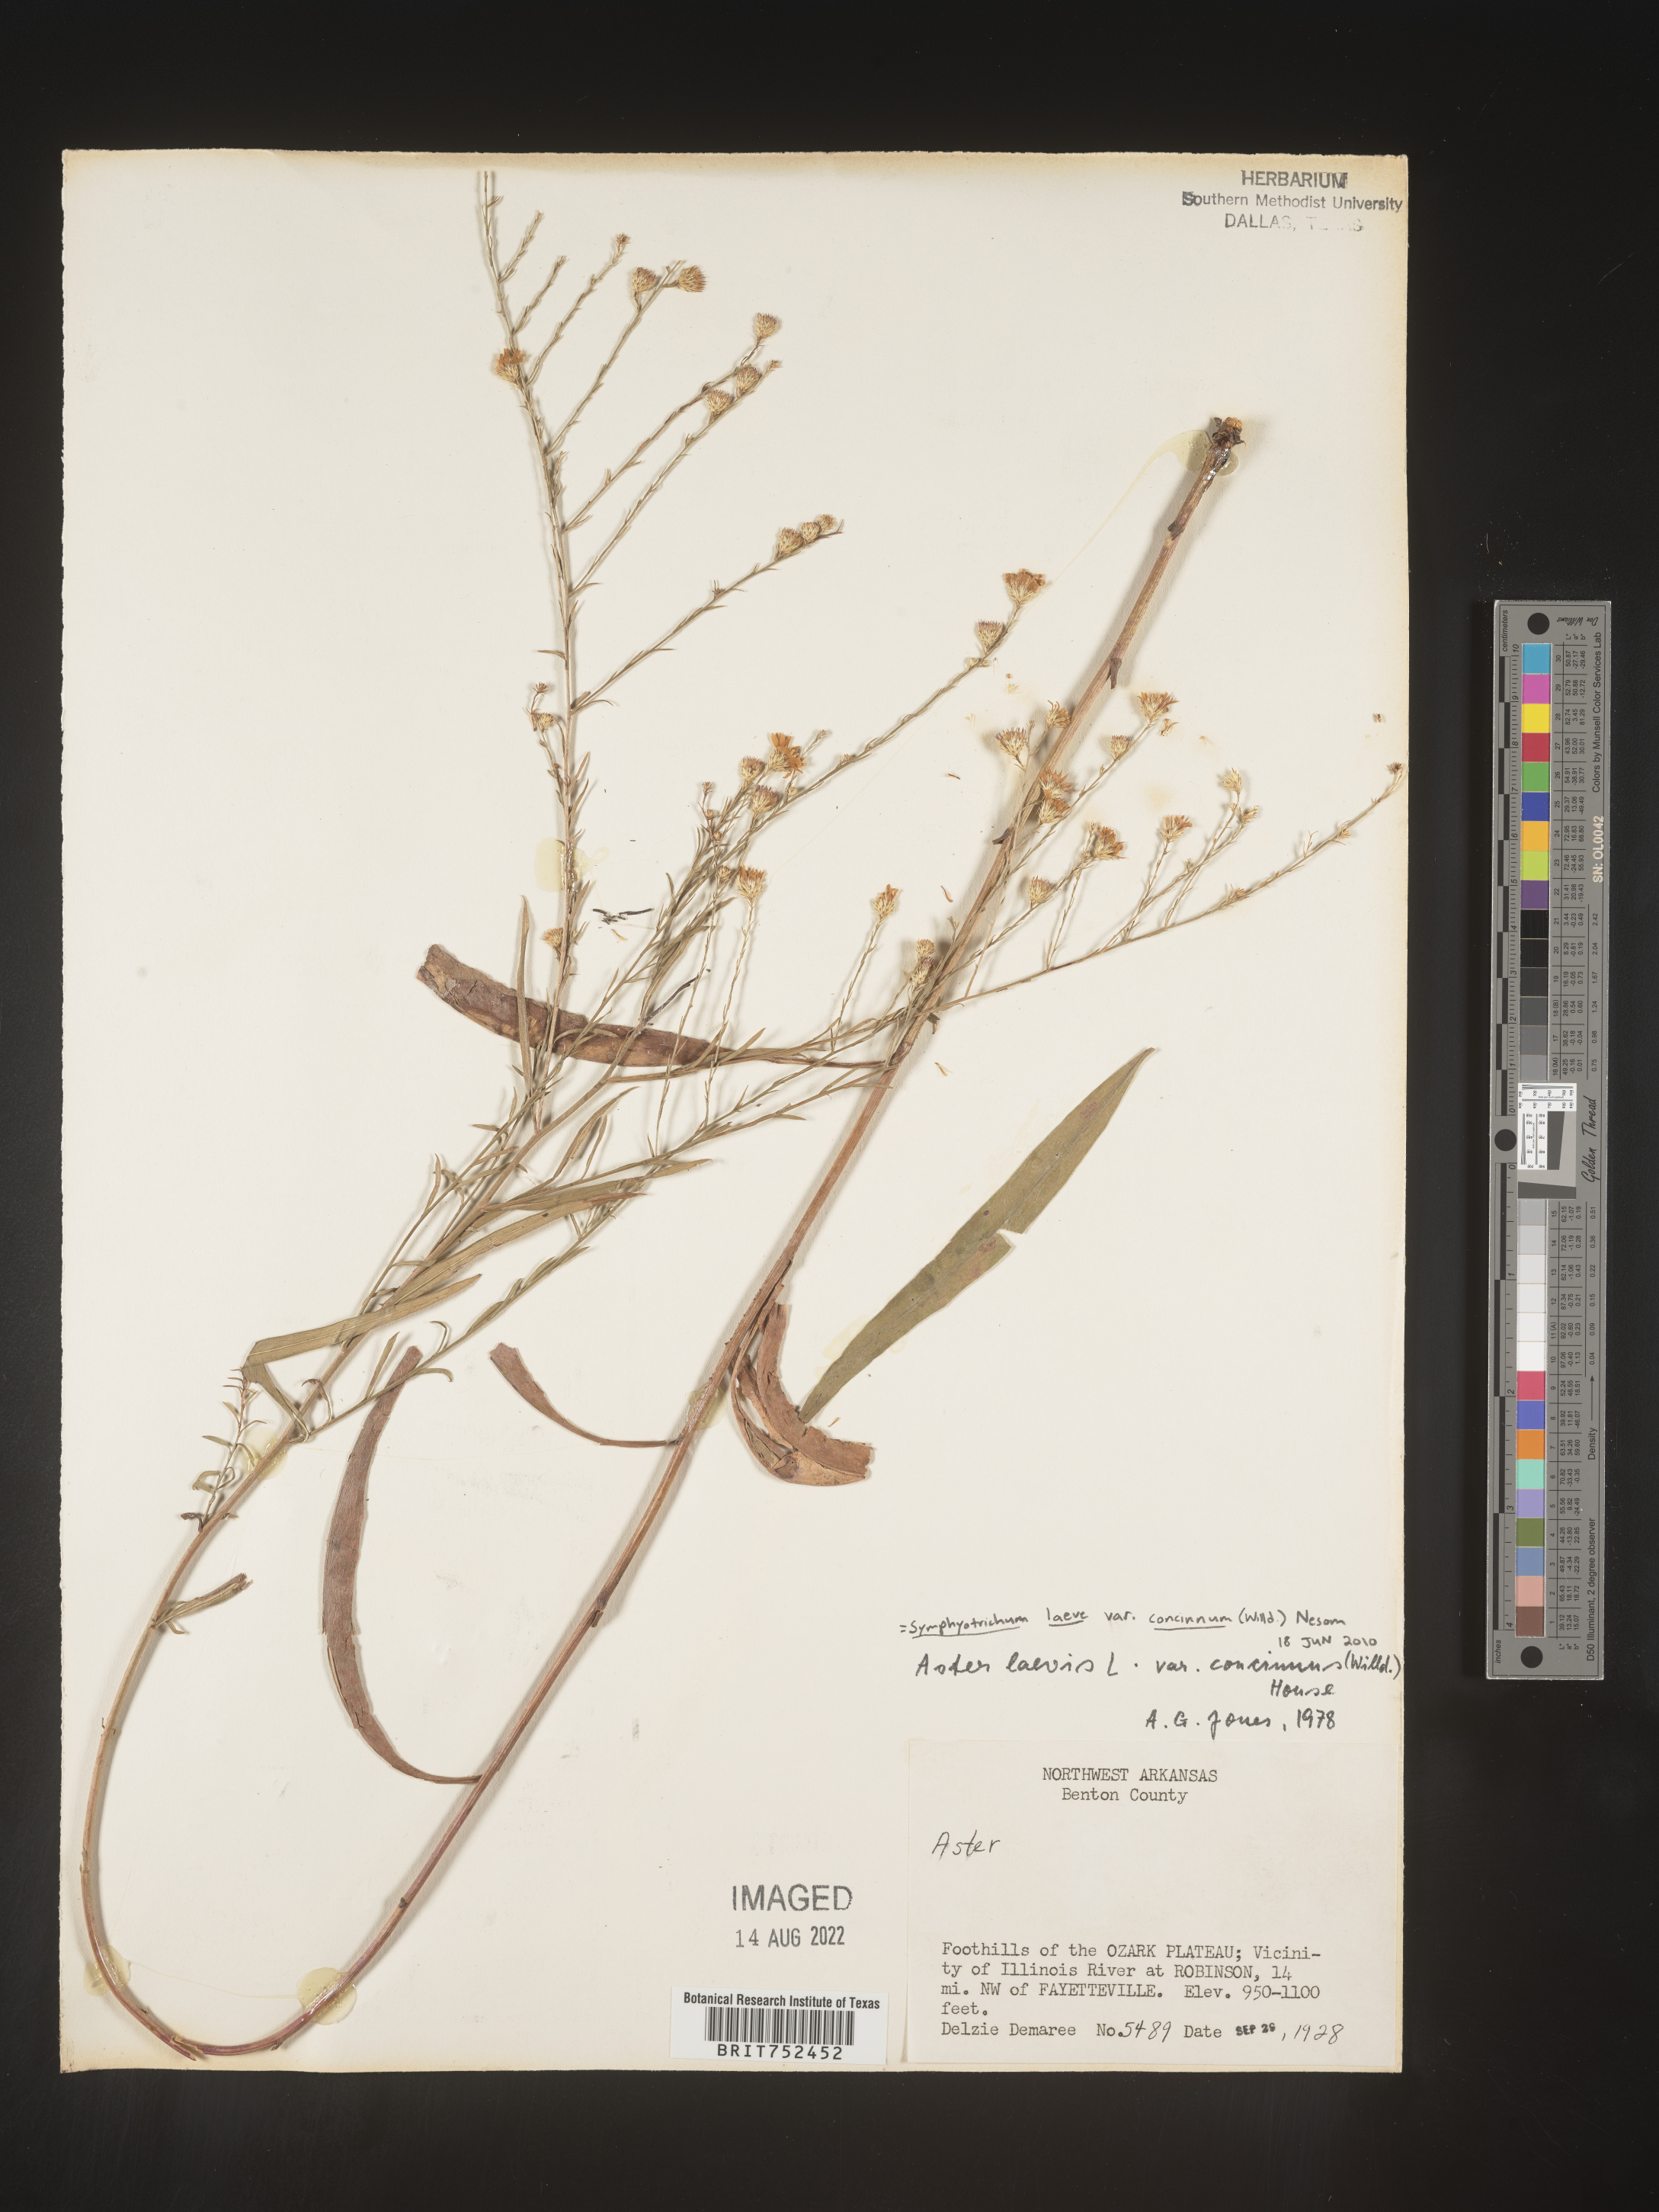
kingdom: Plantae
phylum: Tracheophyta
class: Magnoliopsida
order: Asterales
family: Asteraceae
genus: Symphyotrichum
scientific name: Symphyotrichum laeve
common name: Glaucous aster
